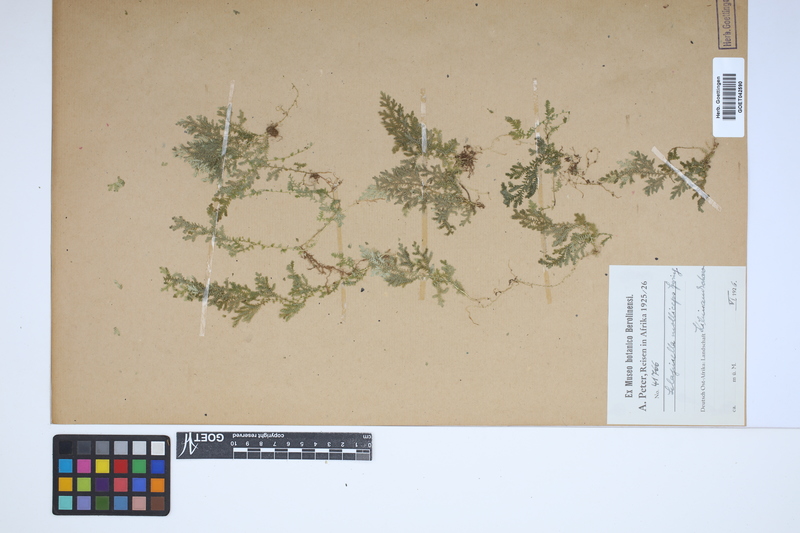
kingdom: Plantae
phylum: Tracheophyta
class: Lycopodiopsida
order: Selaginellales
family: Selaginellaceae
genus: Selaginella
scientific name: Selaginella molliceps
